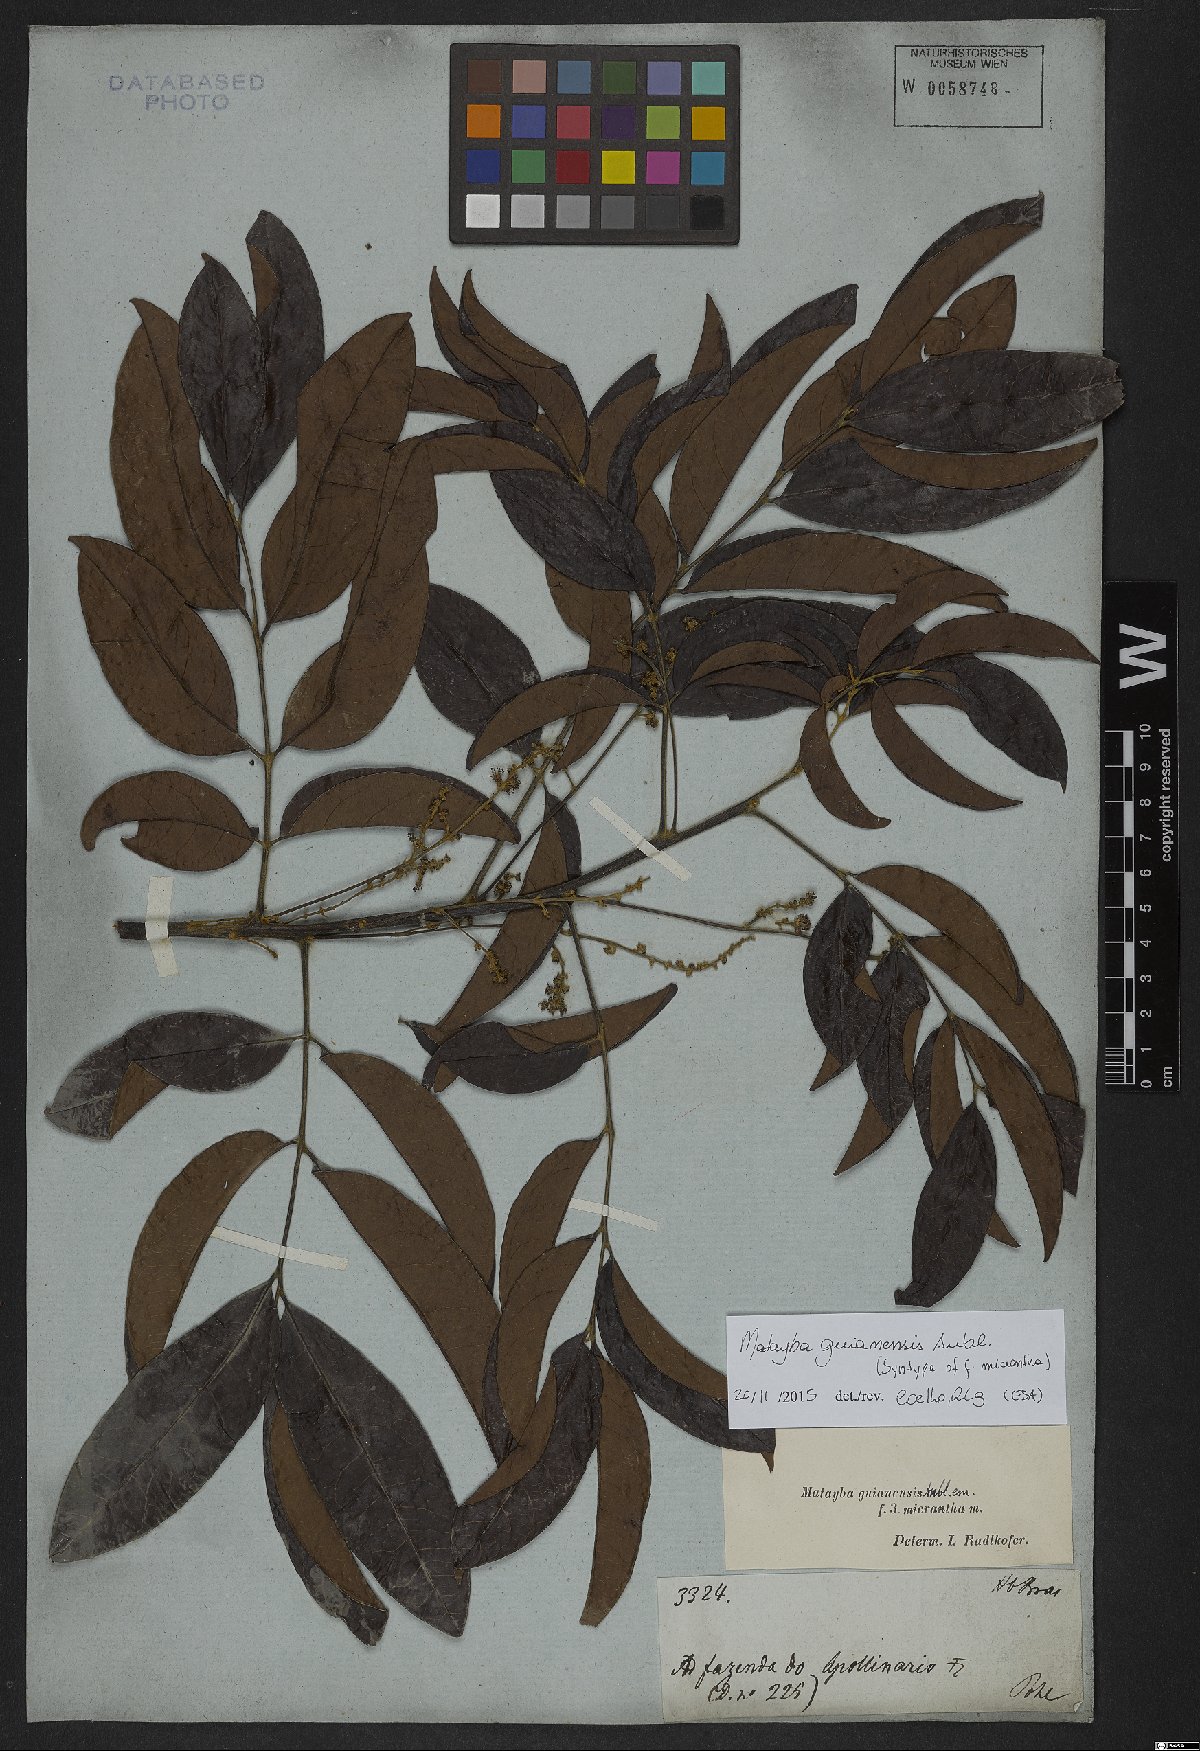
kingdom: Plantae
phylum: Tracheophyta
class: Magnoliopsida
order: Sapindales
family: Sapindaceae
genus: Matayba
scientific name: Matayba guianensis
